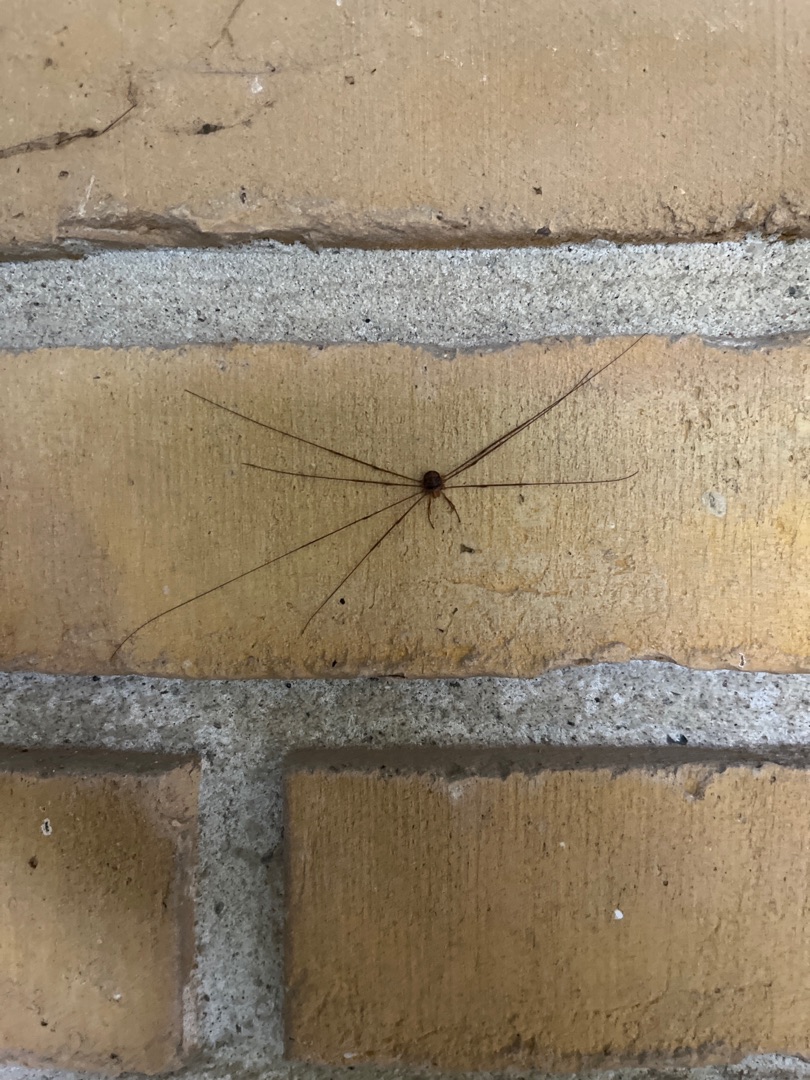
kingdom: Animalia
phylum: Arthropoda
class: Arachnida
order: Opiliones
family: Phalangiidae
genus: Dicranopalpus
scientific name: Dicranopalpus ramosus
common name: Gaffelmejer
